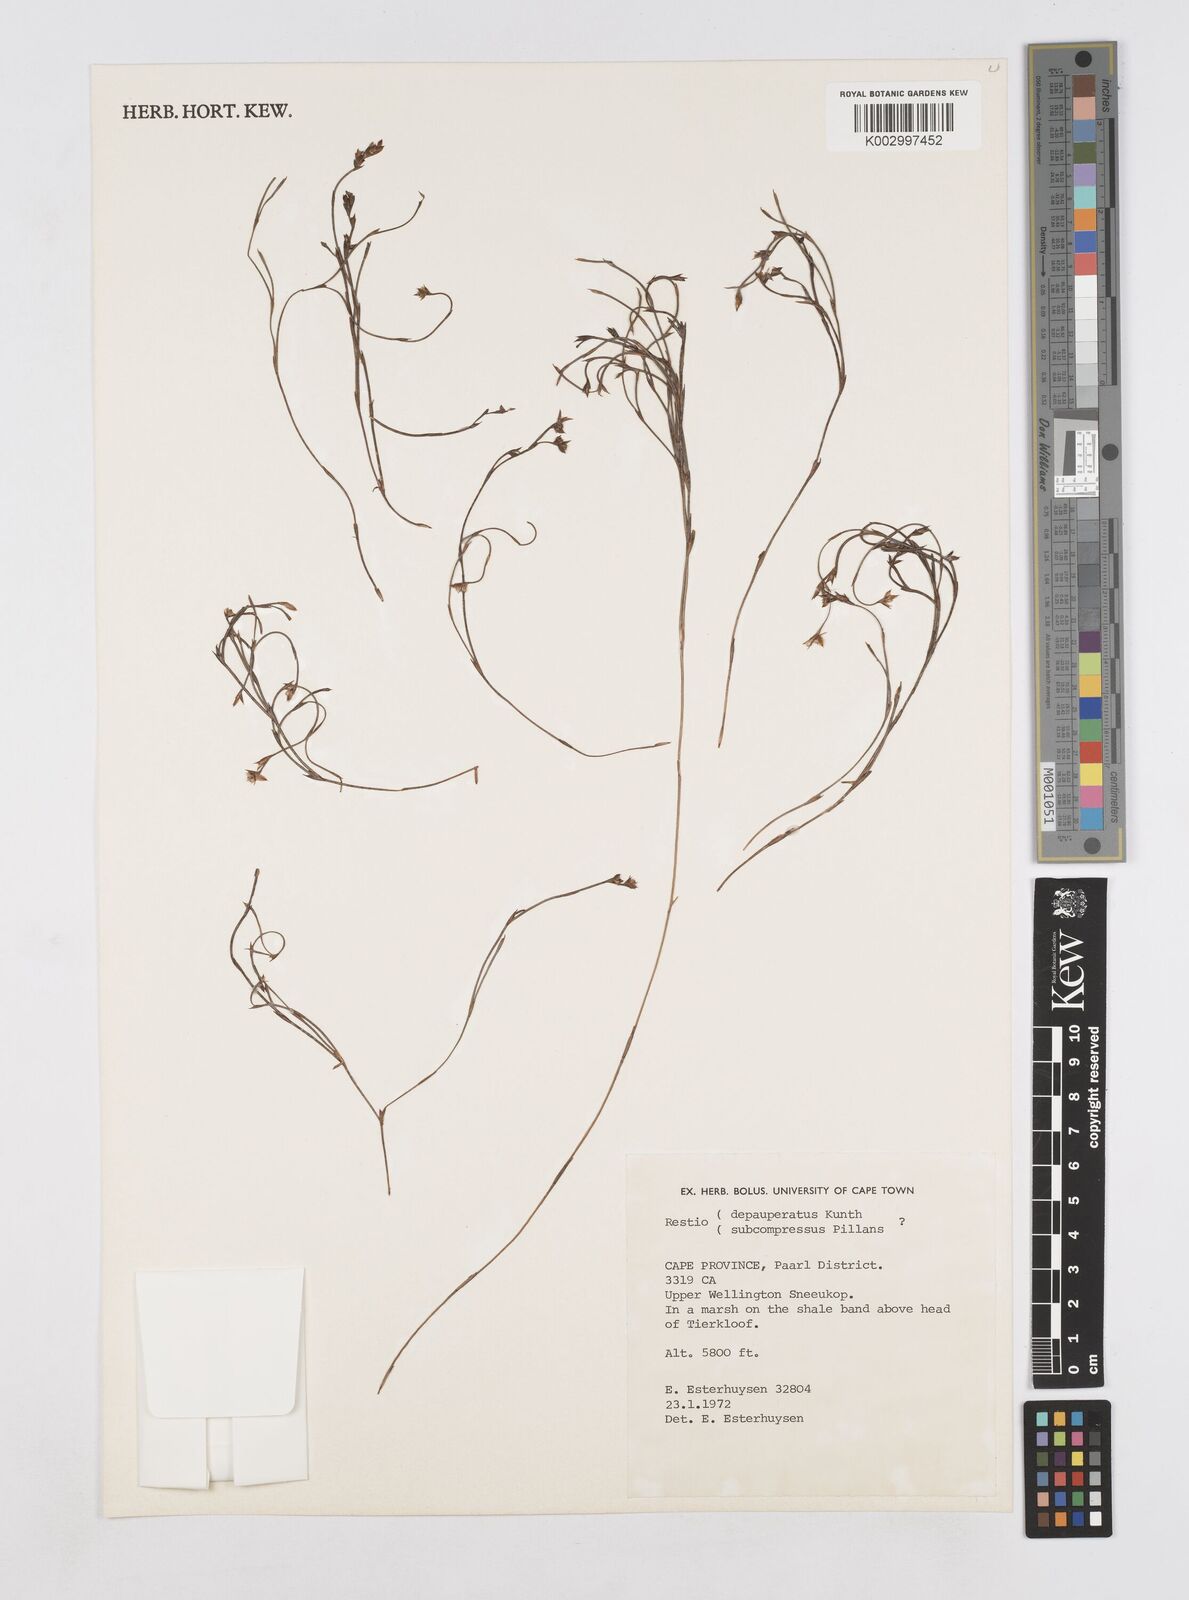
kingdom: Plantae
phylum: Tracheophyta
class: Liliopsida
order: Poales
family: Restionaceae
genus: Platycaulos
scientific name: Platycaulos depauperatus
